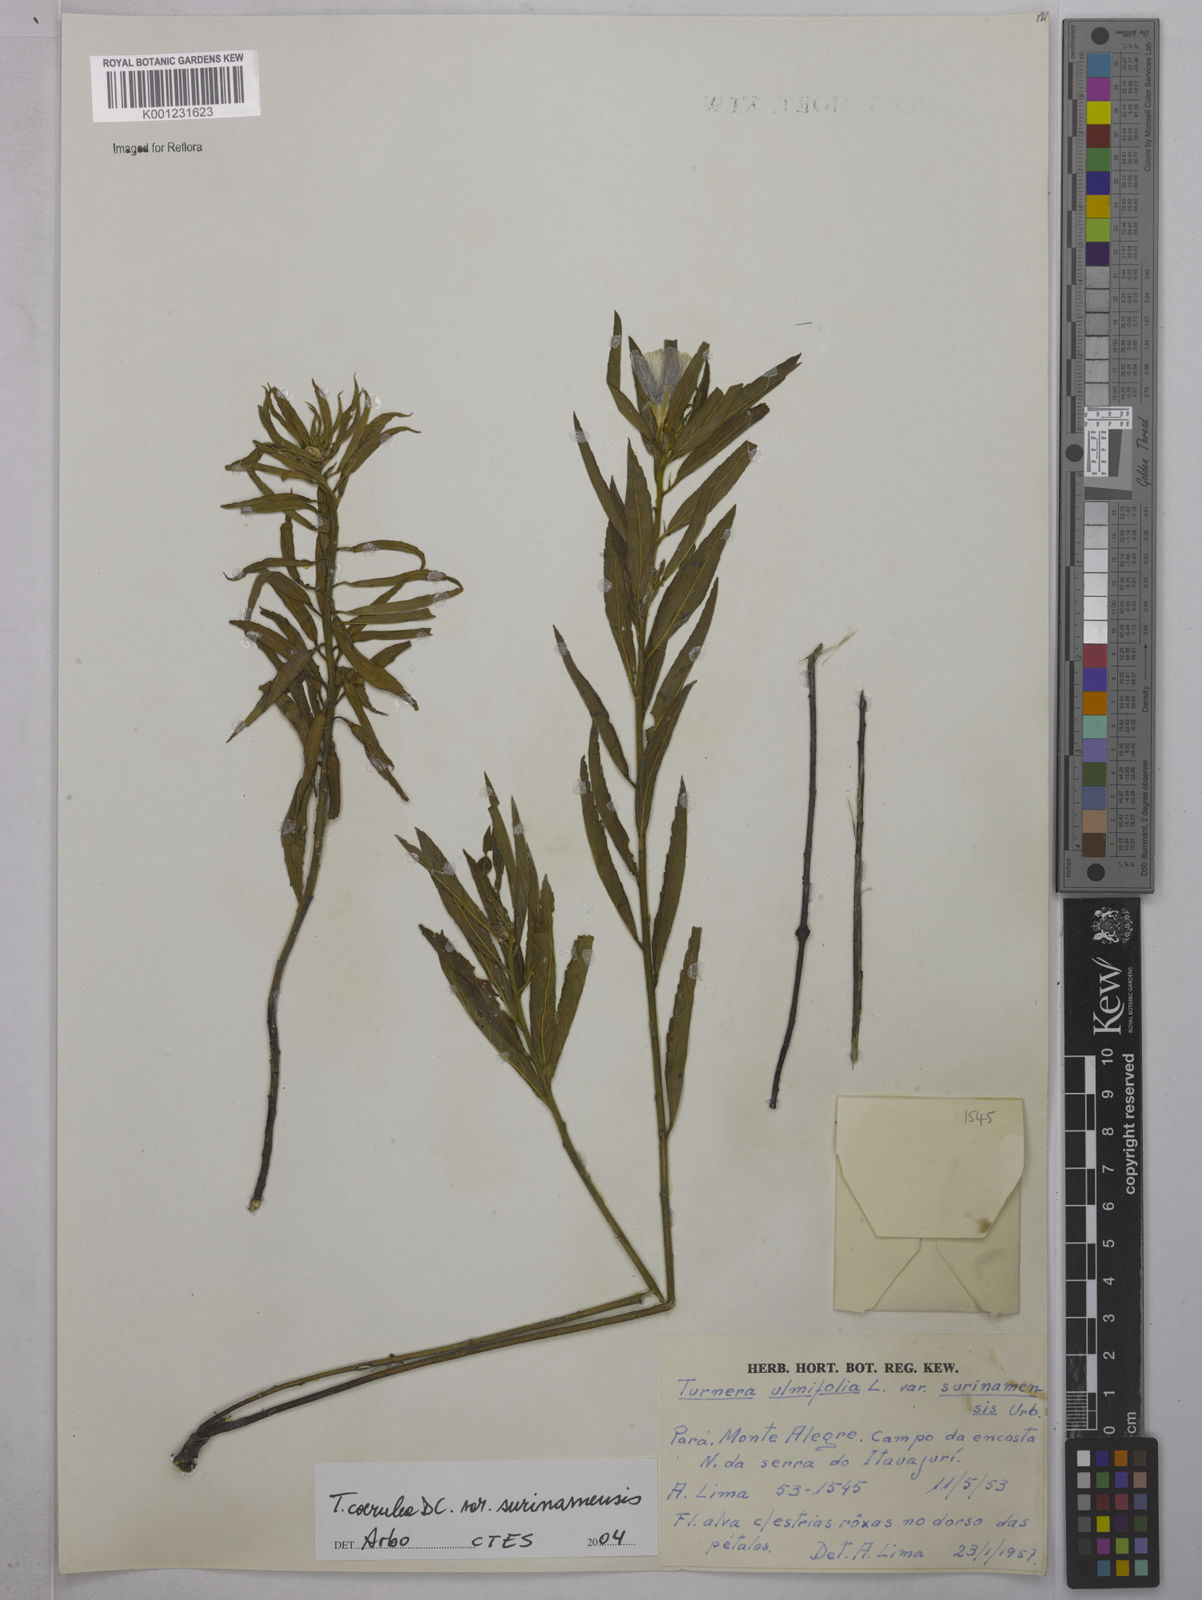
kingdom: Plantae
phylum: Tracheophyta
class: Magnoliopsida
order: Malpighiales
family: Turneraceae
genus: Turnera
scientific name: Turnera coerulea
